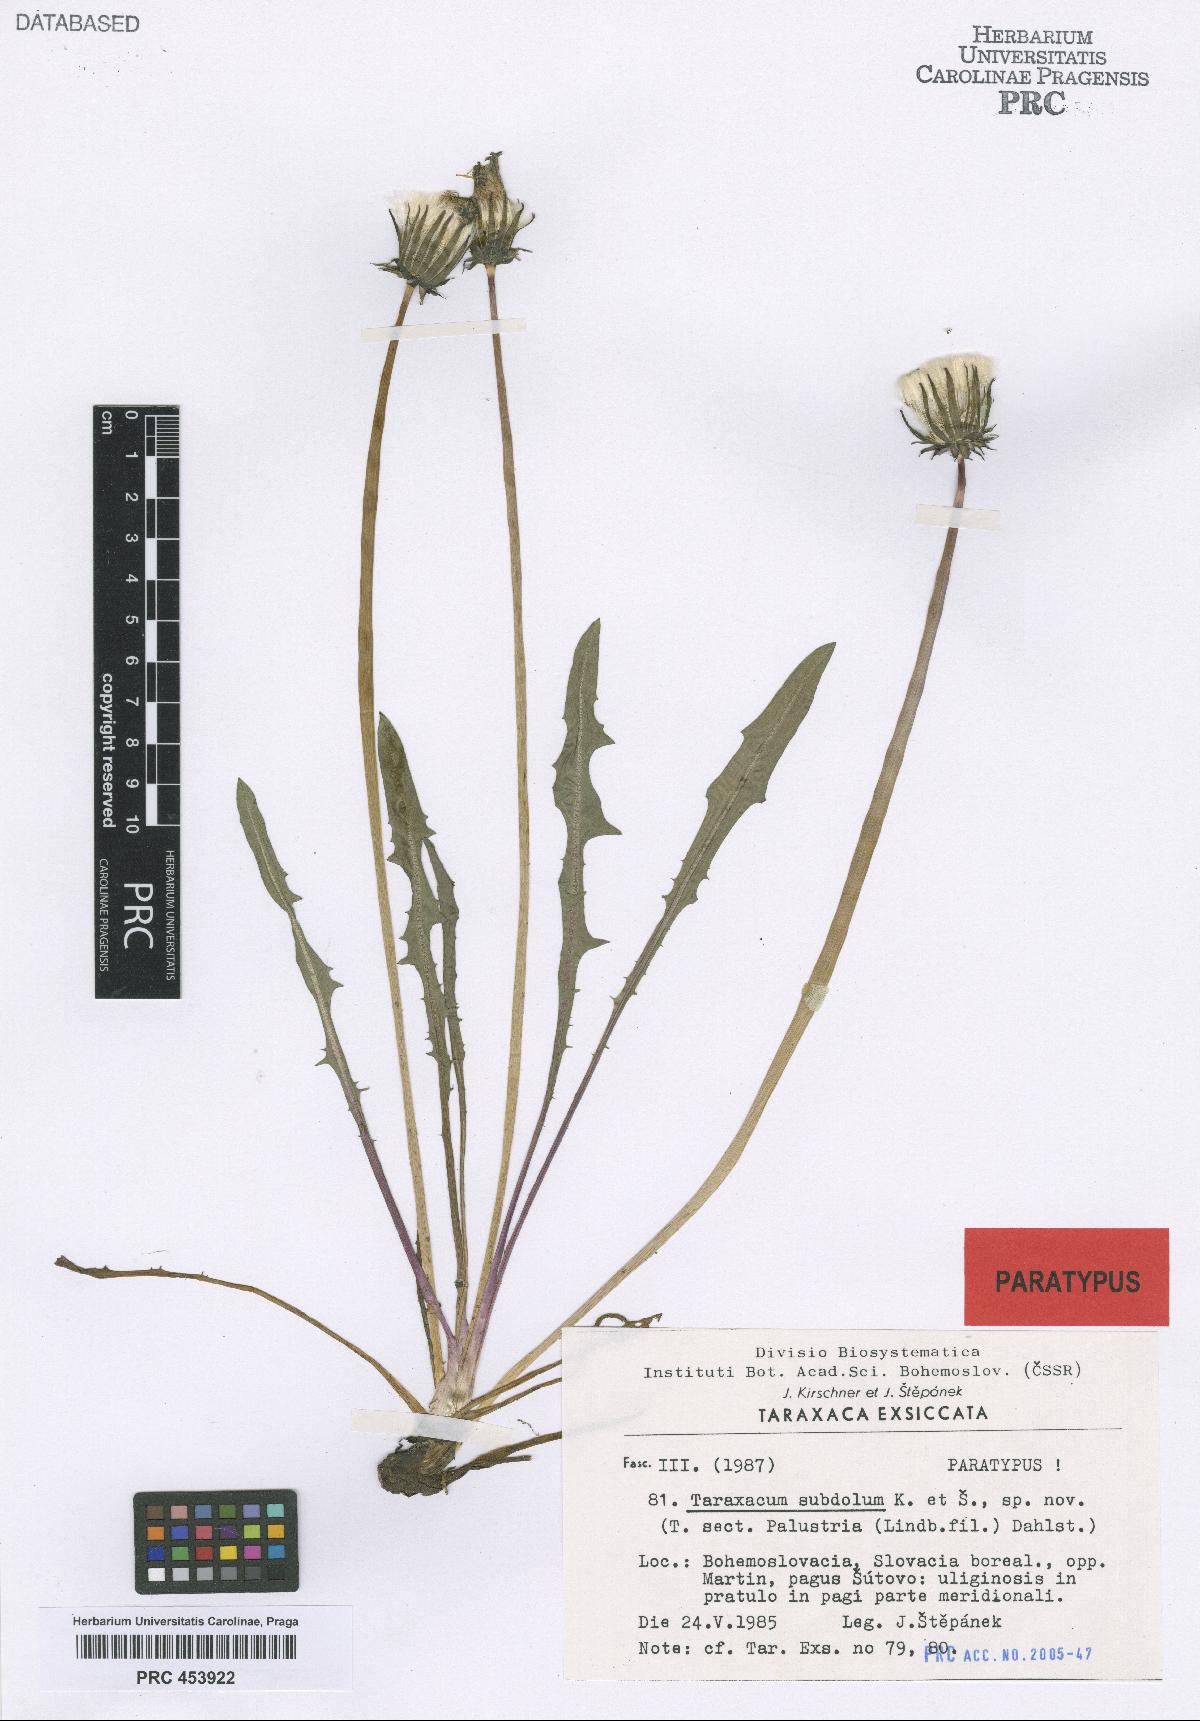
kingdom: Plantae
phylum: Tracheophyta
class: Magnoliopsida
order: Asterales
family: Asteraceae
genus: Taraxacum
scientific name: Taraxacum subdolum
